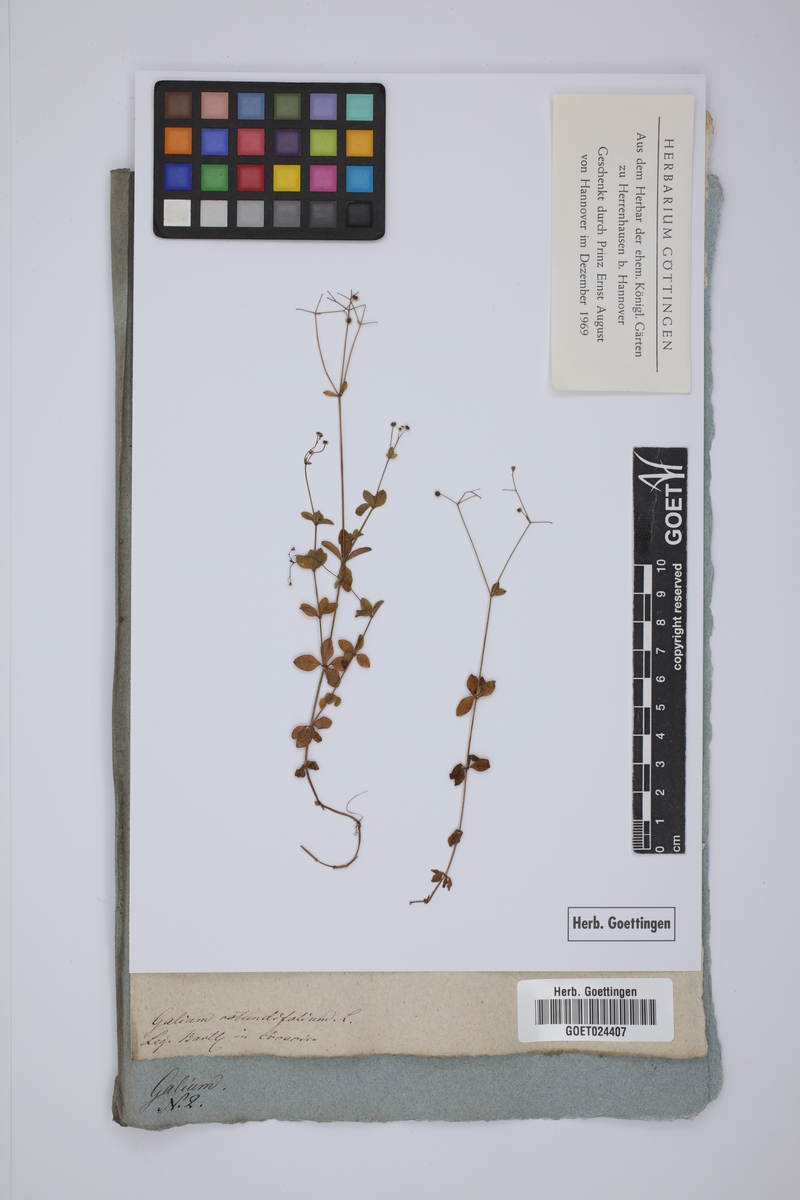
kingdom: Plantae
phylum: Tracheophyta
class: Magnoliopsida
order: Gentianales
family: Rubiaceae
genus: Galium
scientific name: Galium rotundifolium
